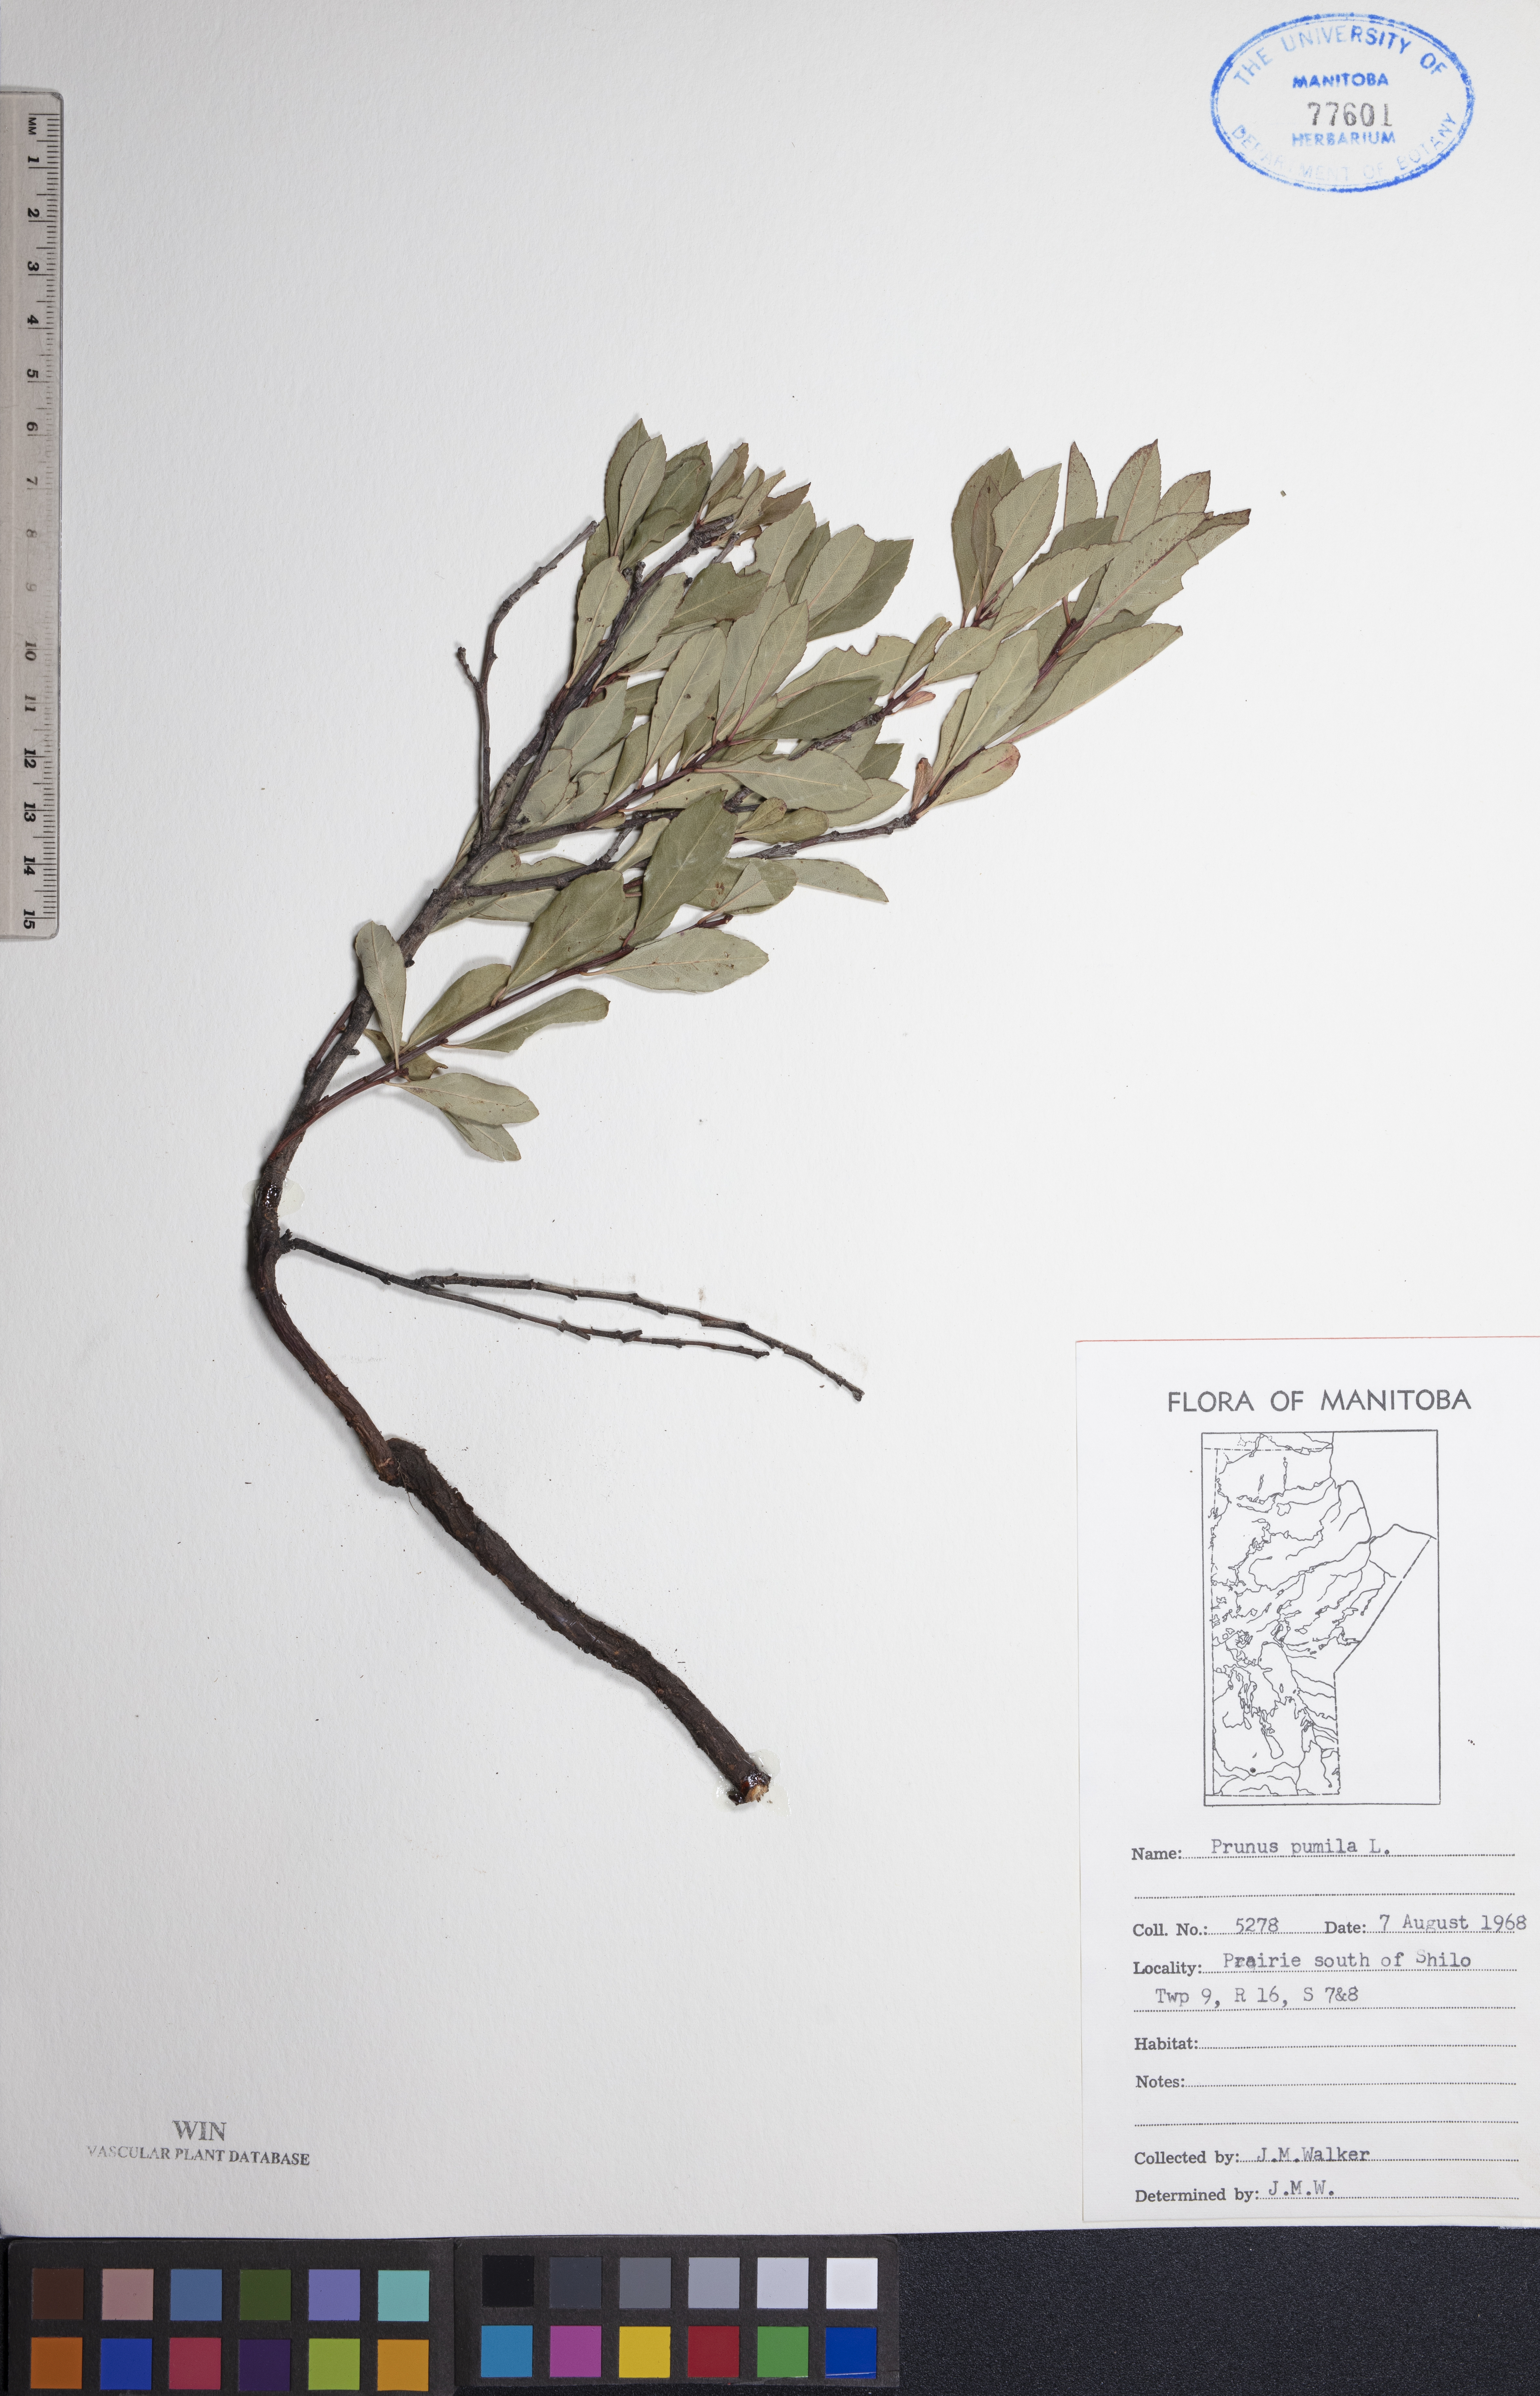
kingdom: Plantae
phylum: Tracheophyta
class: Magnoliopsida
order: Rosales
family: Rosaceae
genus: Prunus
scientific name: Prunus pumila
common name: Dwarf cherry
